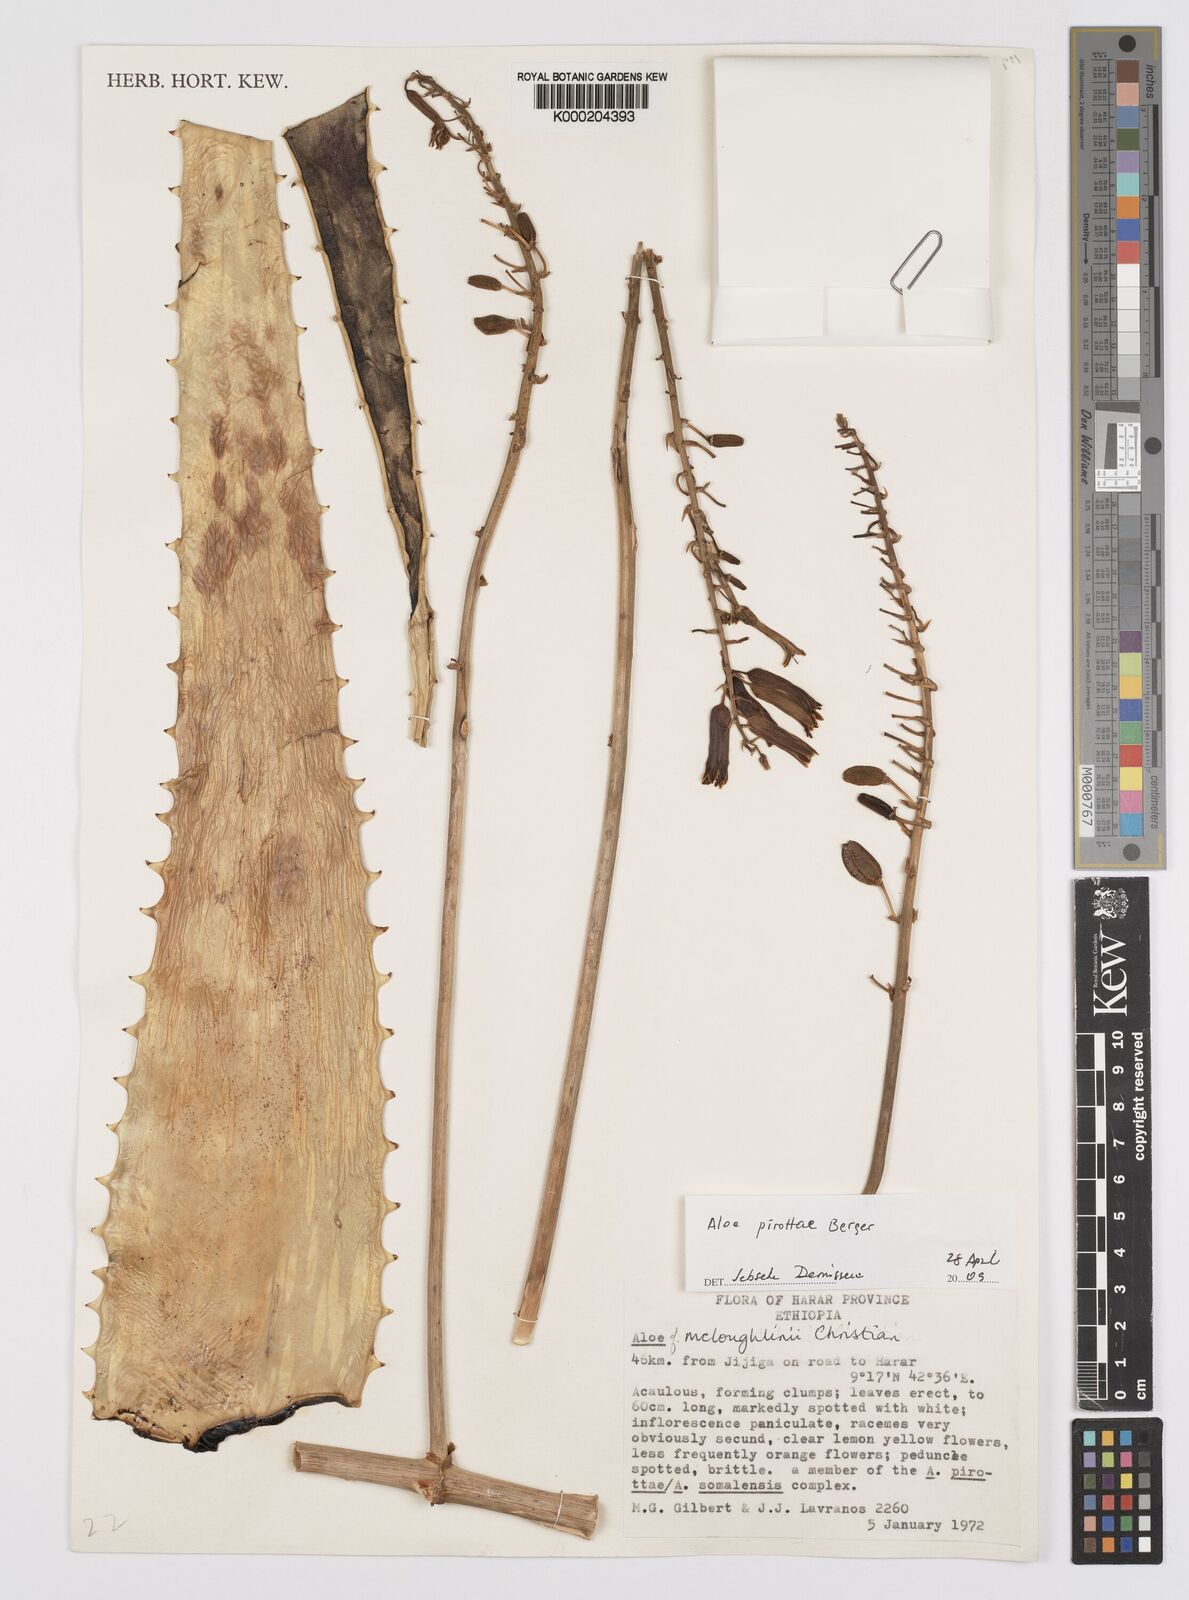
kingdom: Plantae
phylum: Tracheophyta
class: Liliopsida
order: Asparagales
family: Asphodelaceae
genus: Aloe
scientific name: Aloe pirottae
